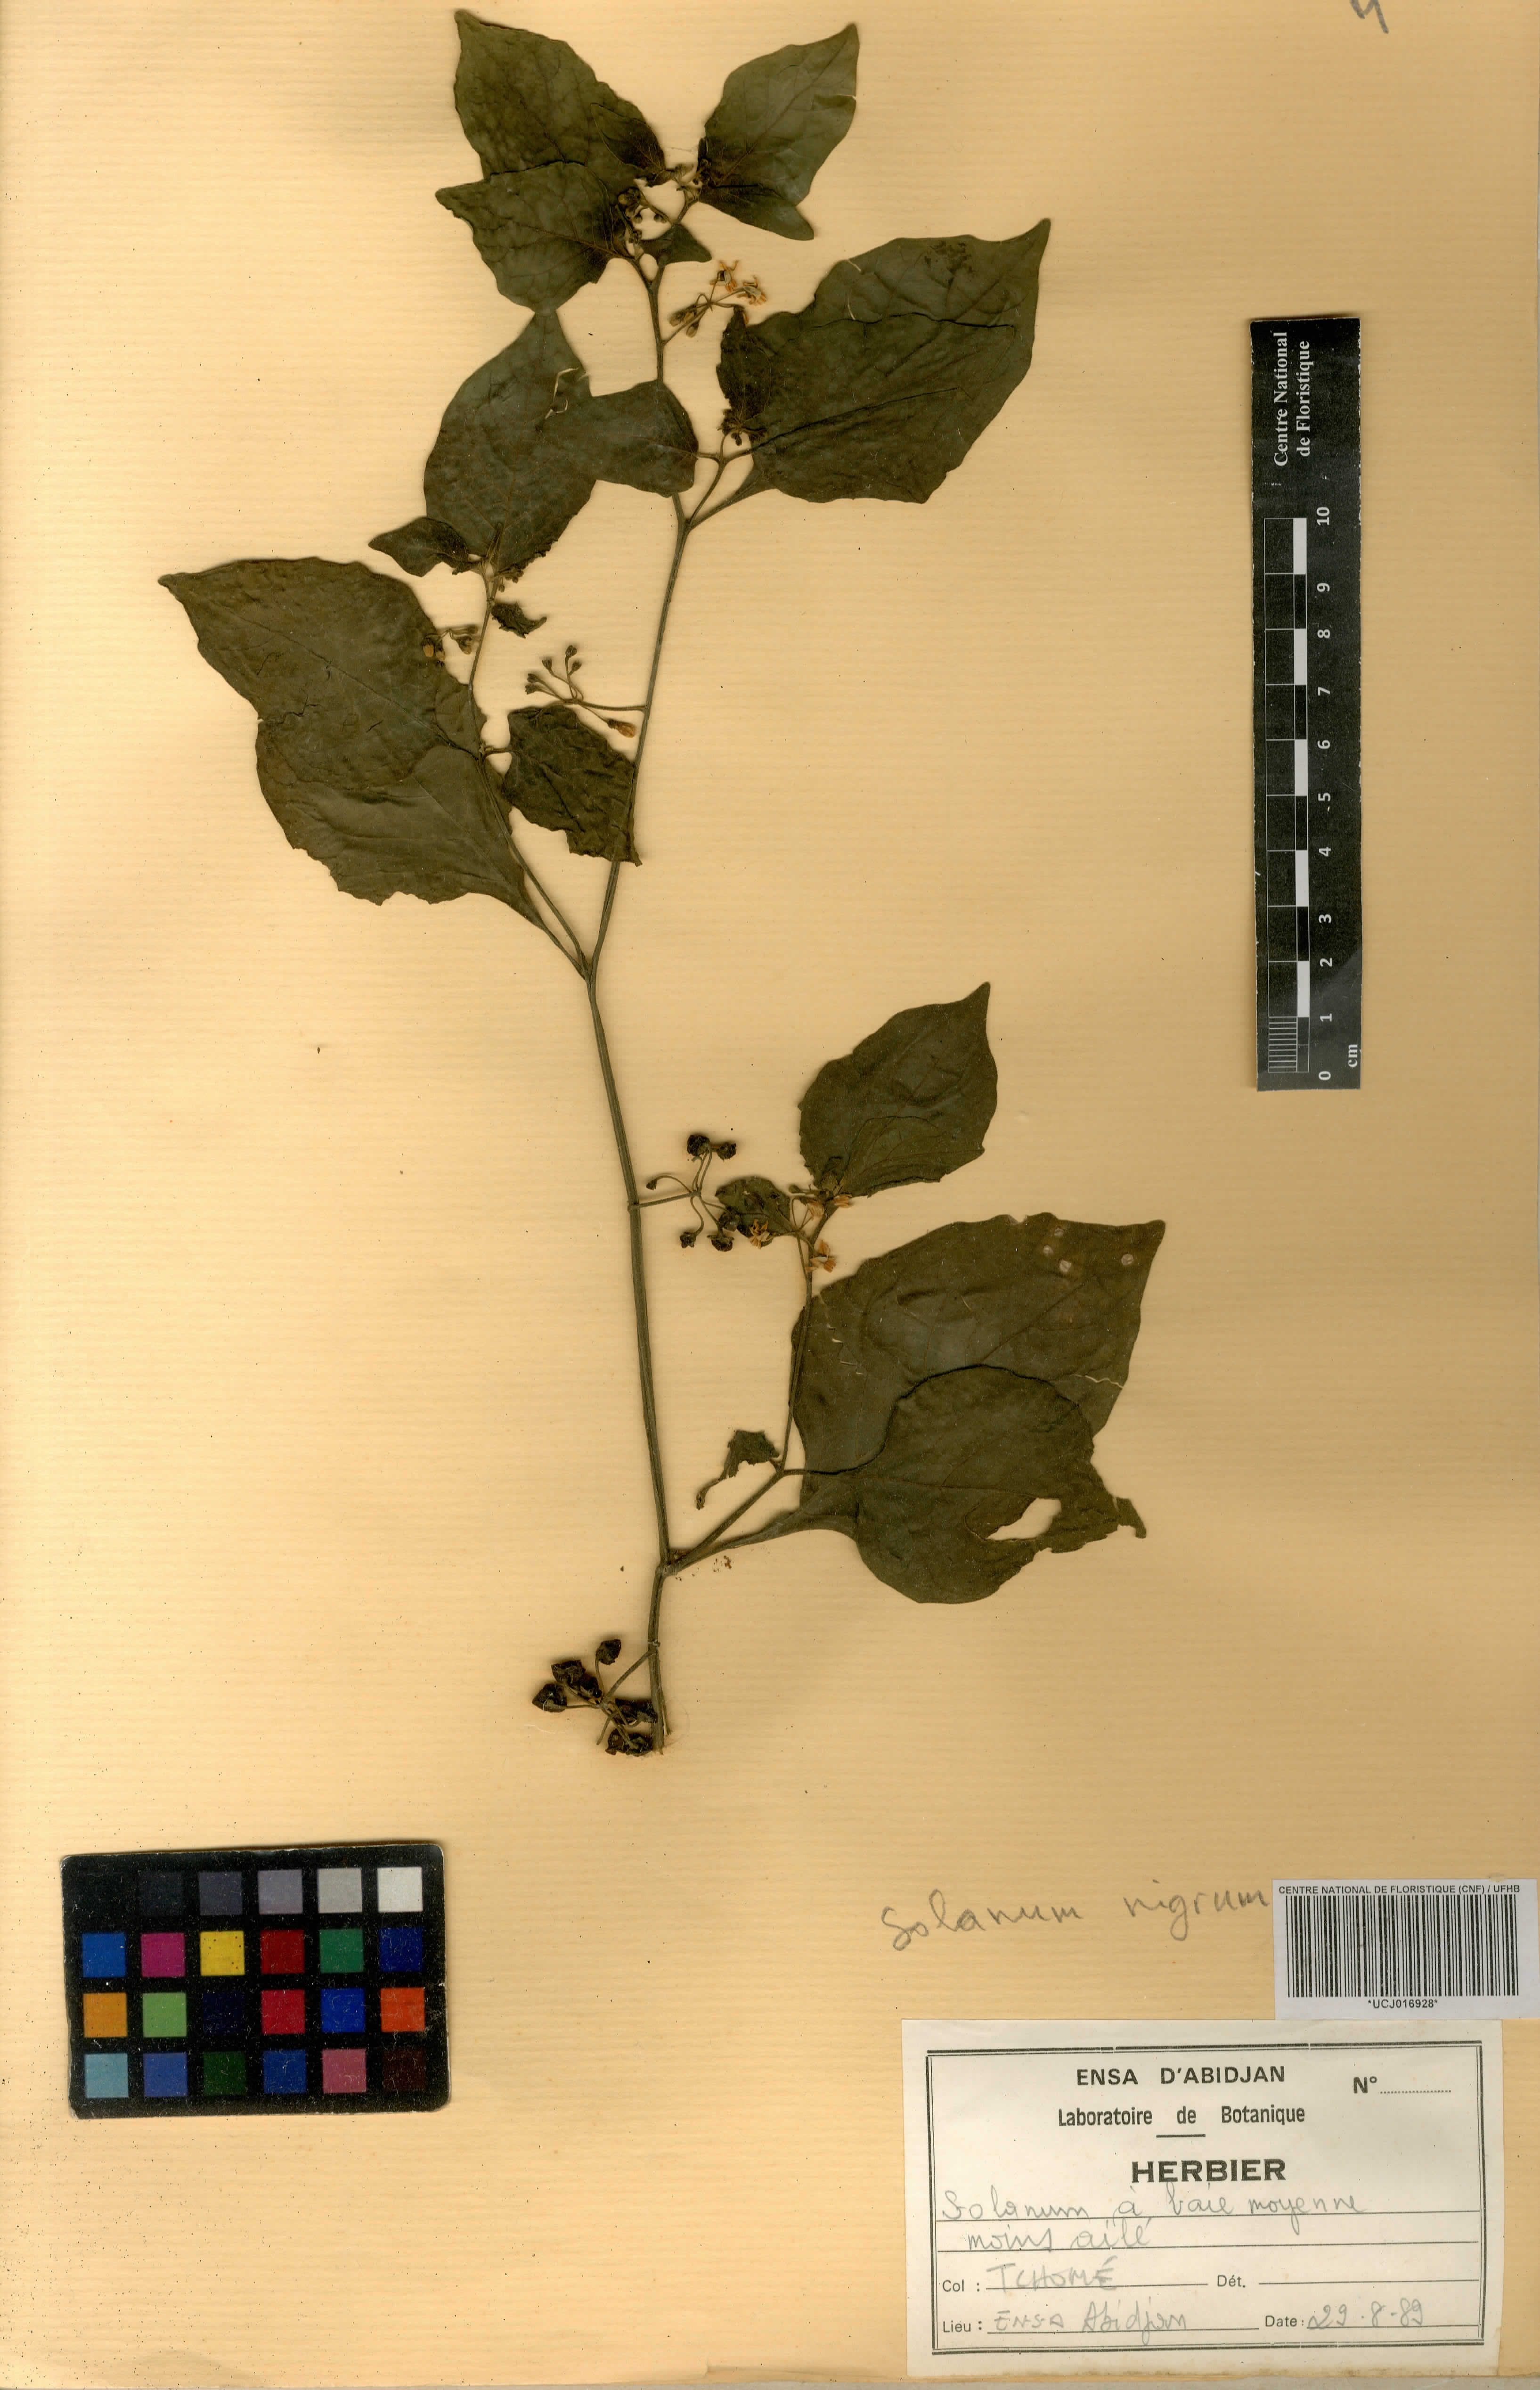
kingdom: Plantae
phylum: Tracheophyta
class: Magnoliopsida
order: Solanales
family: Solanaceae
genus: Solanum
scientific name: Solanum nigrum
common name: Black nightshade
